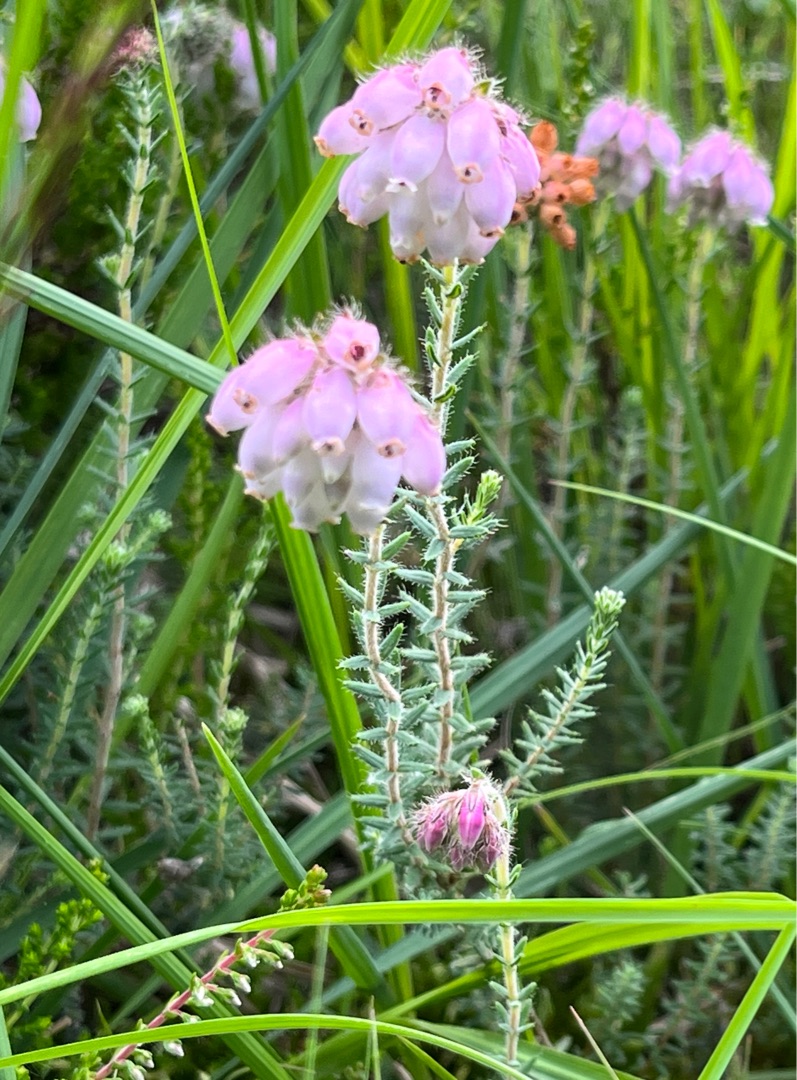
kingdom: Plantae
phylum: Tracheophyta
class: Magnoliopsida
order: Ericales
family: Ericaceae
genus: Erica
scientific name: Erica tetralix
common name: Klokkelyng
